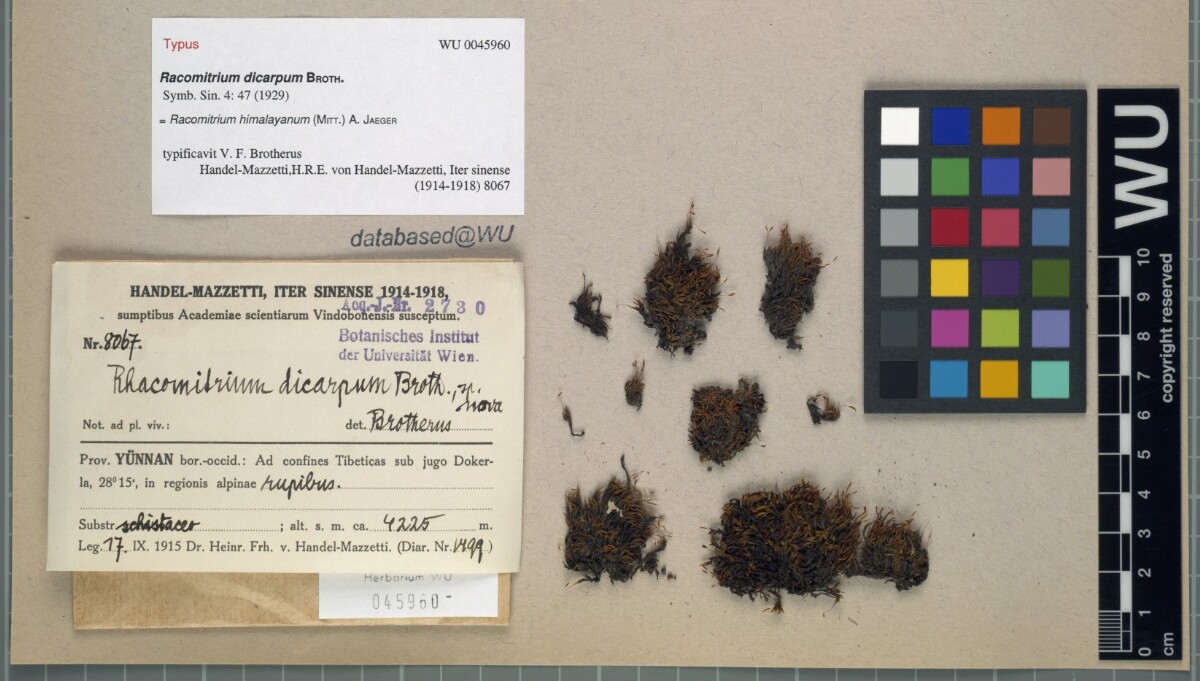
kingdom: Plantae
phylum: Bryophyta
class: Bryopsida
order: Grimmiales
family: Grimmiaceae
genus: Bucklandiella
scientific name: Bucklandiella himalayana
